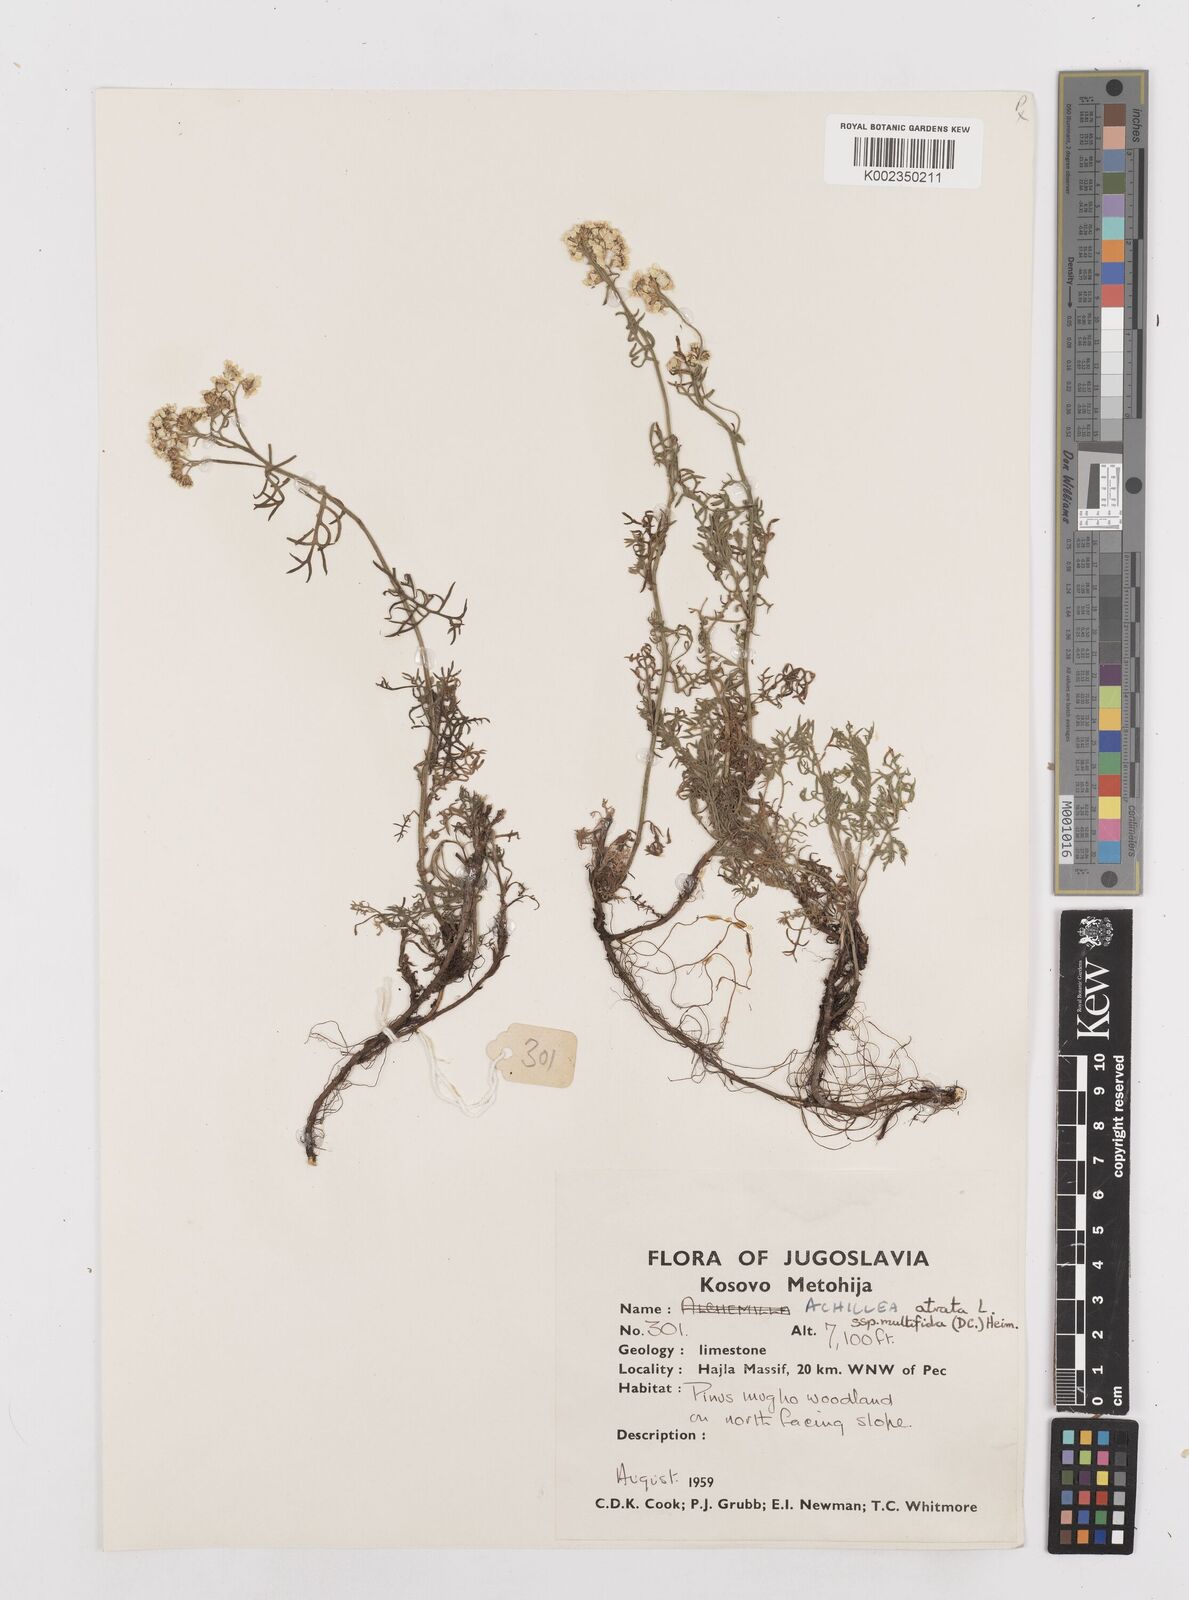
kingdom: Plantae
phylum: Tracheophyta
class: Magnoliopsida
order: Asterales
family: Asteraceae
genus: Achillea
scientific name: Achillea clusiana
